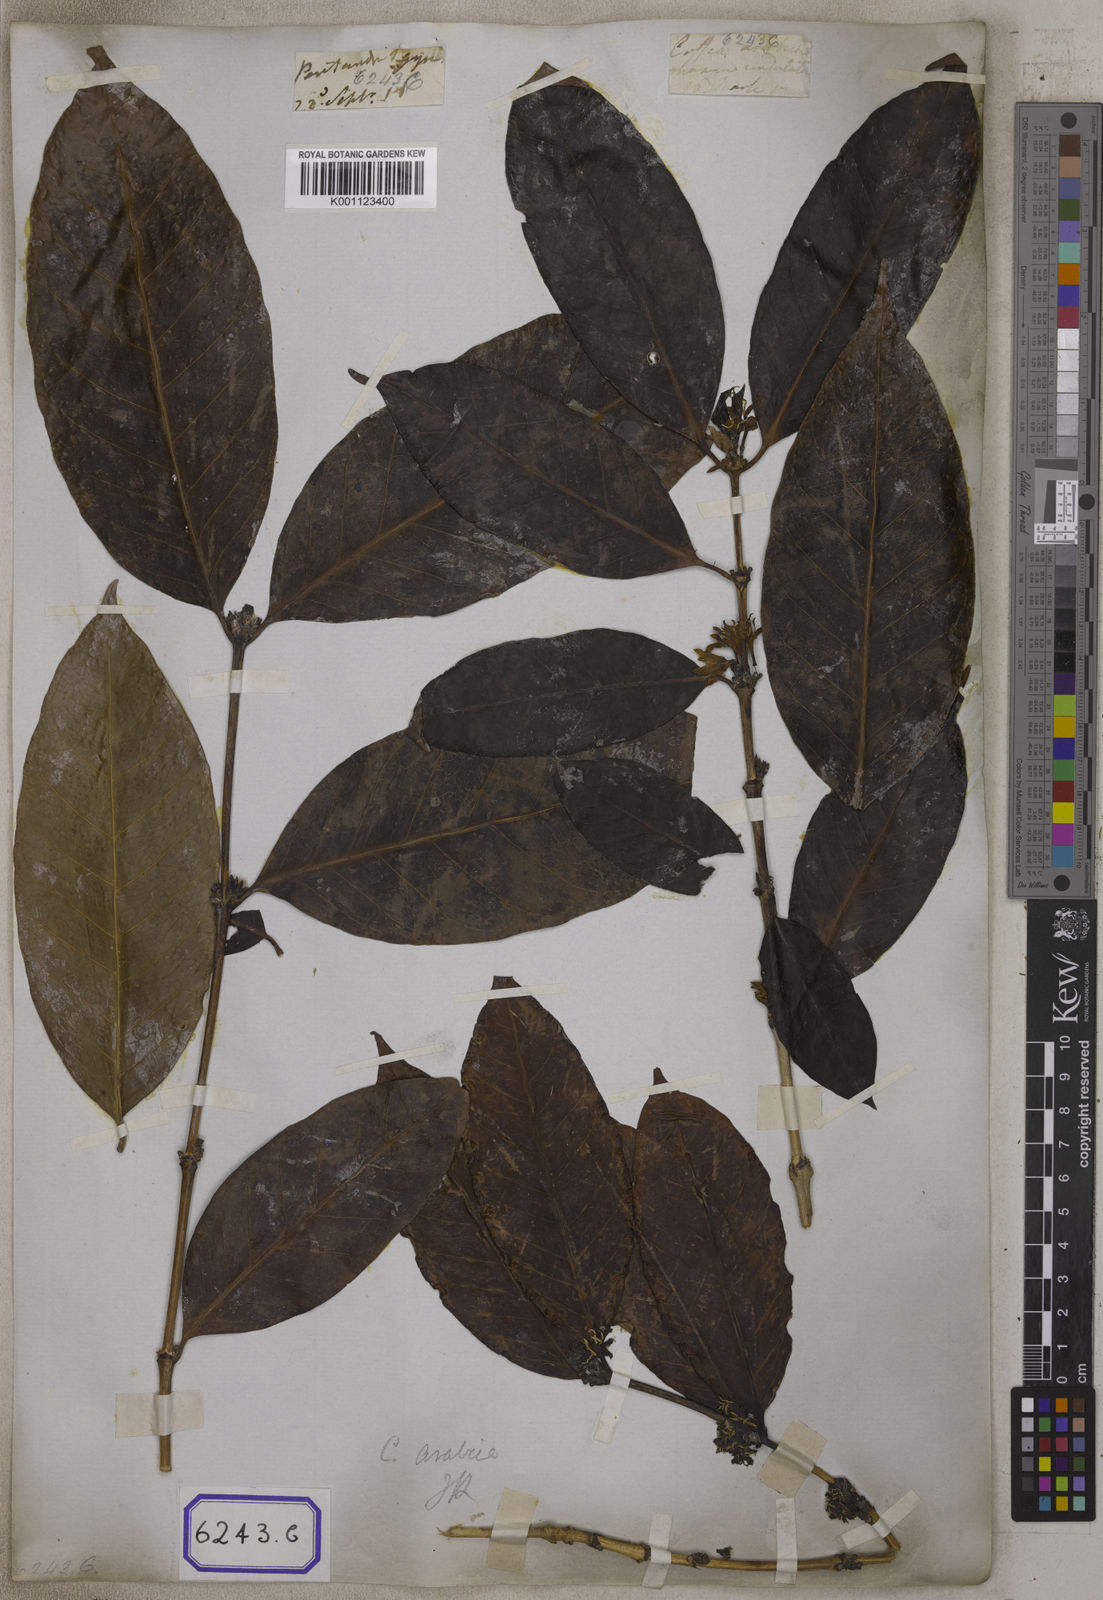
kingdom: Plantae
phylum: Tracheophyta
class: Magnoliopsida
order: Gentianales
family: Rubiaceae
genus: Coffea
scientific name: Coffea arabica
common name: Coffee
